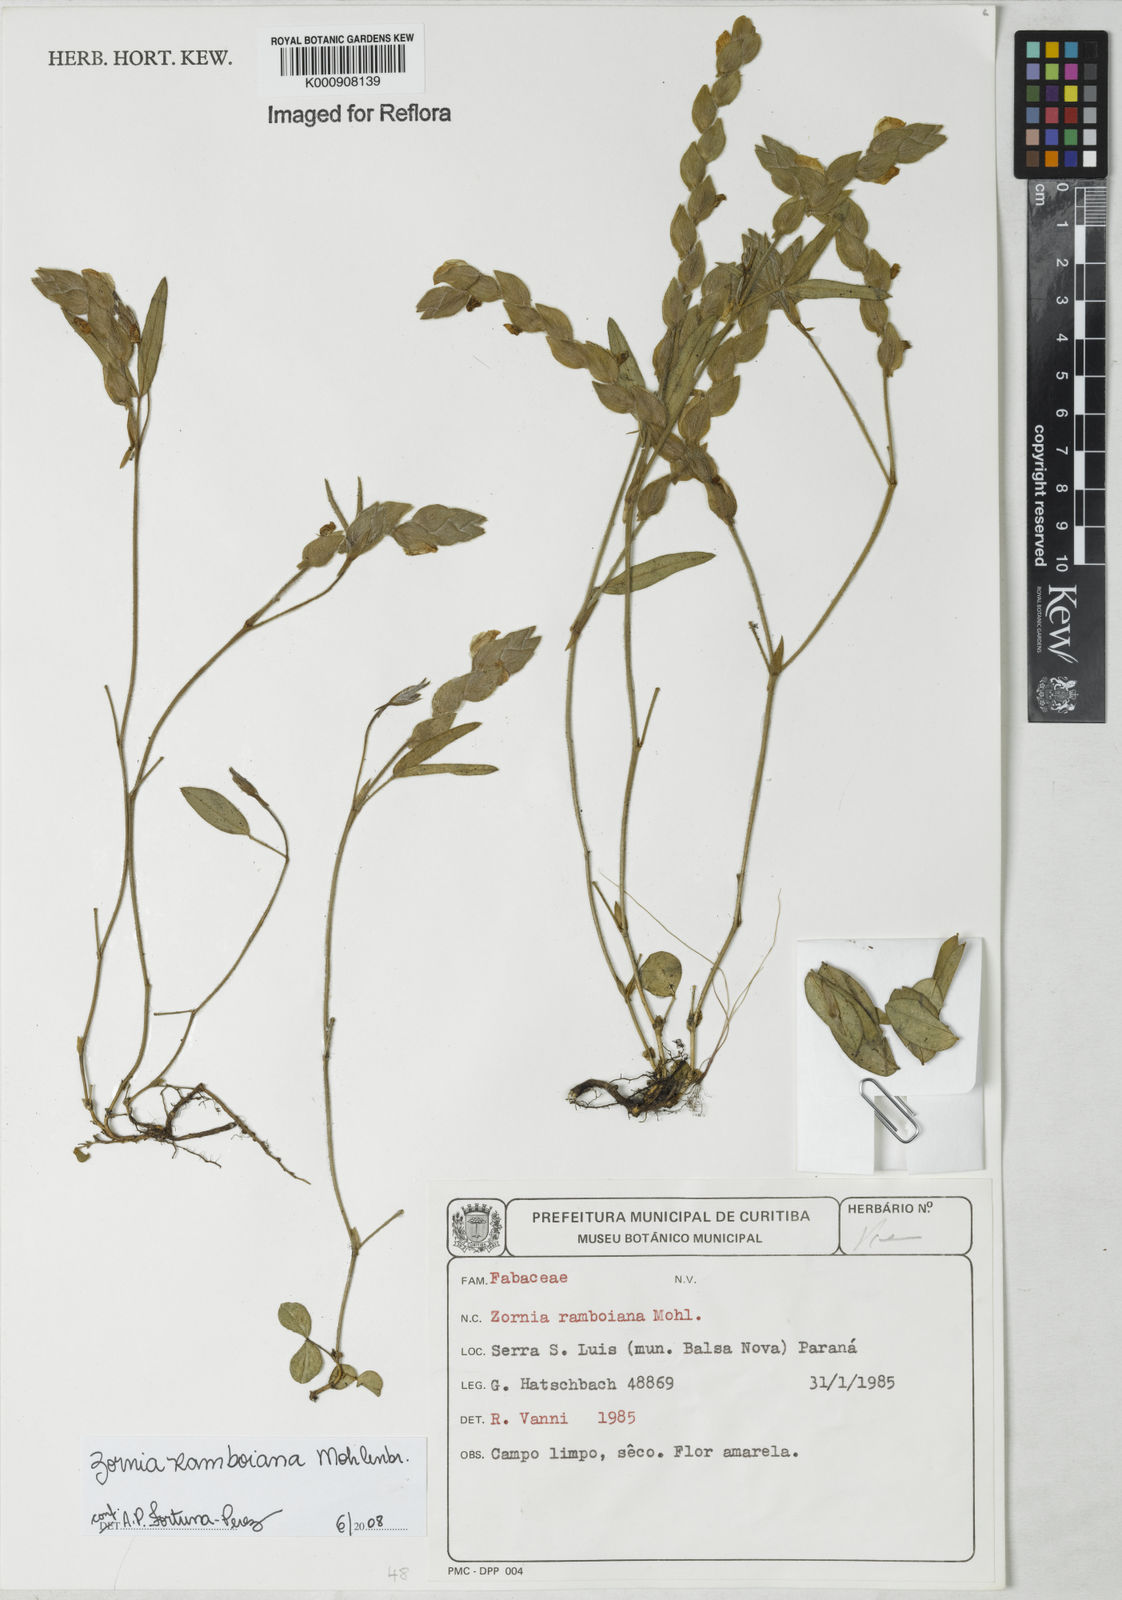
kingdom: Plantae
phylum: Tracheophyta
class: Magnoliopsida
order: Fabales
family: Fabaceae
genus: Zornia
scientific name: Zornia ramboiana
